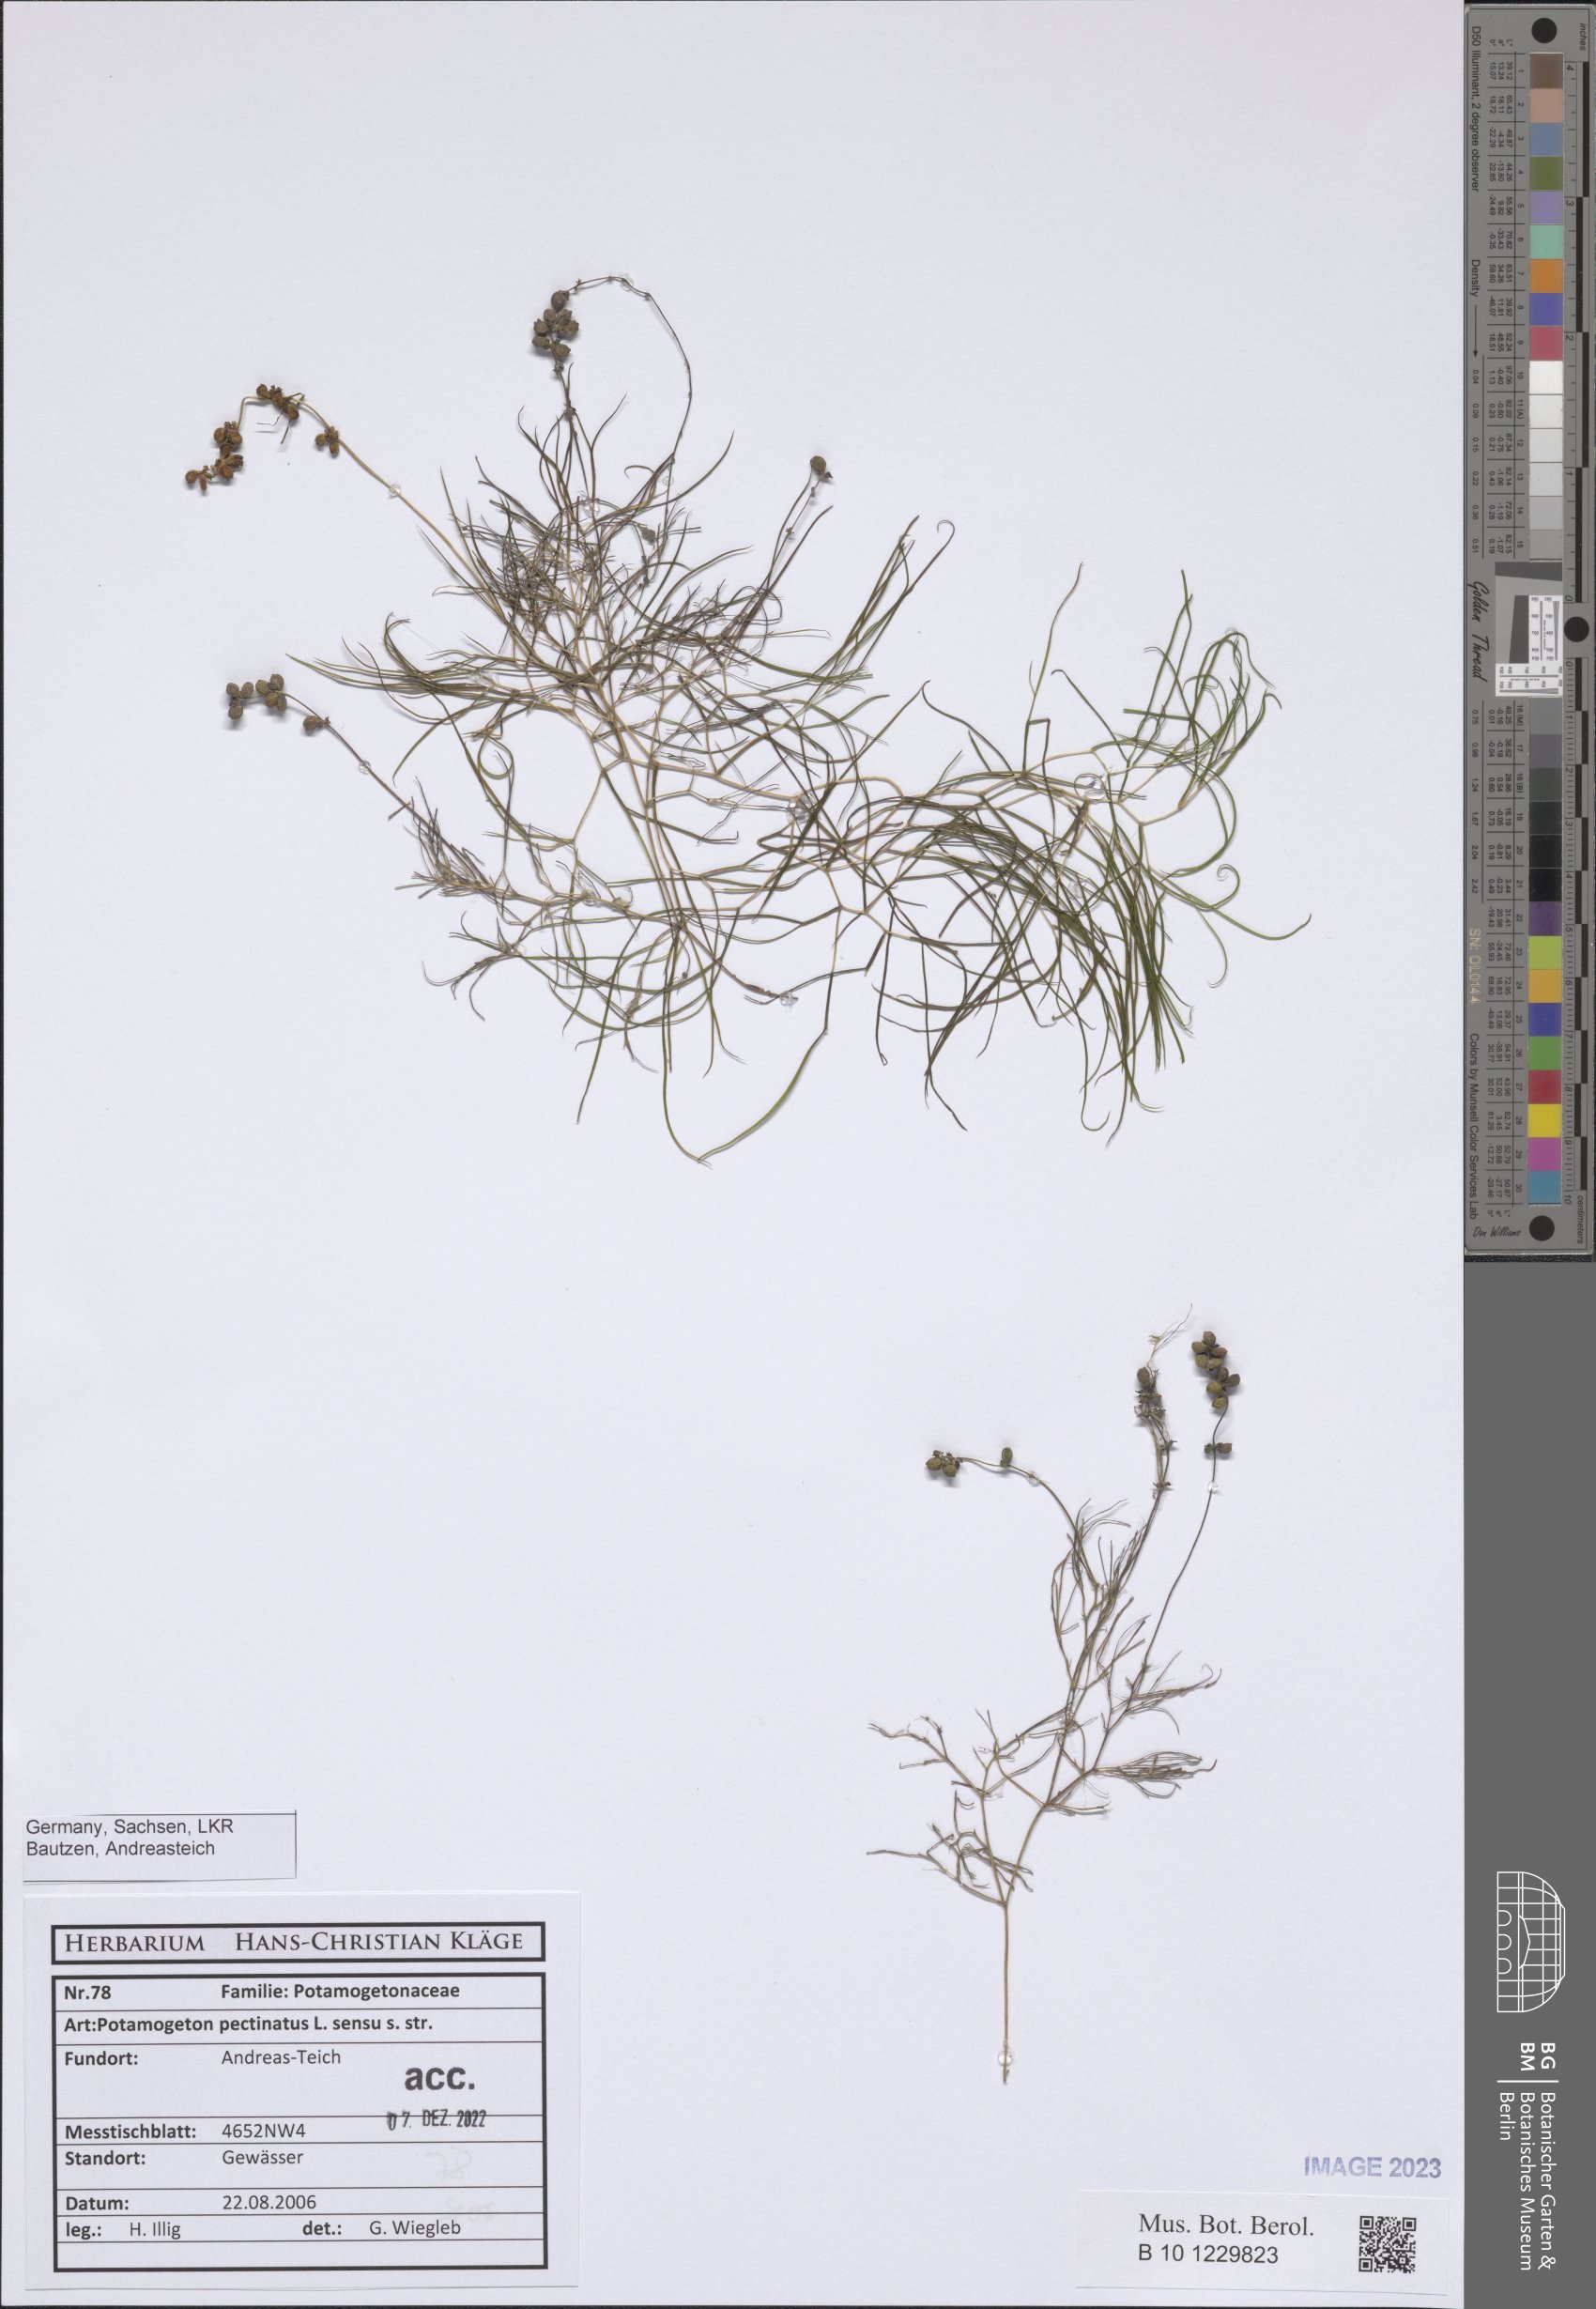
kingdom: Plantae
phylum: Tracheophyta
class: Liliopsida
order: Alismatales
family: Potamogetonaceae
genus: Stuckenia
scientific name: Stuckenia pectinata
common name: Sago pondweed
